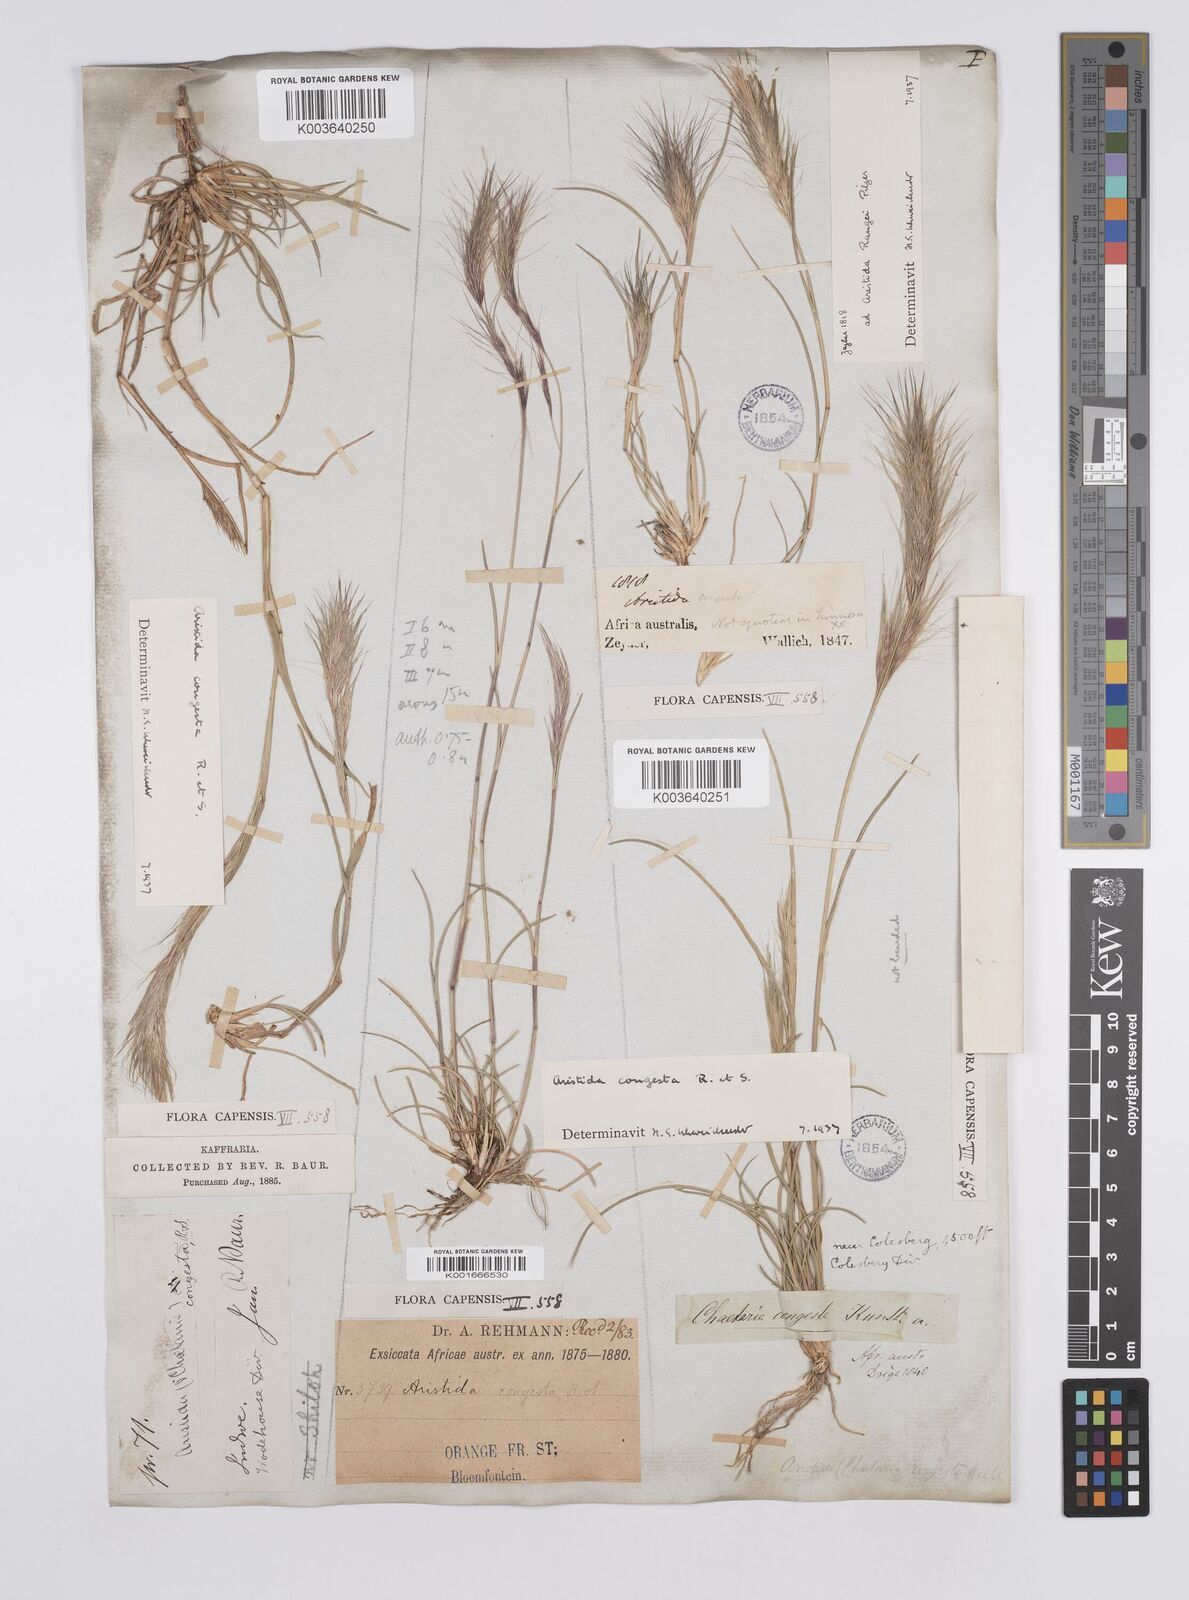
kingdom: Plantae
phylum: Tracheophyta
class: Liliopsida
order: Poales
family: Poaceae
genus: Aristida
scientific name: Aristida congesta
